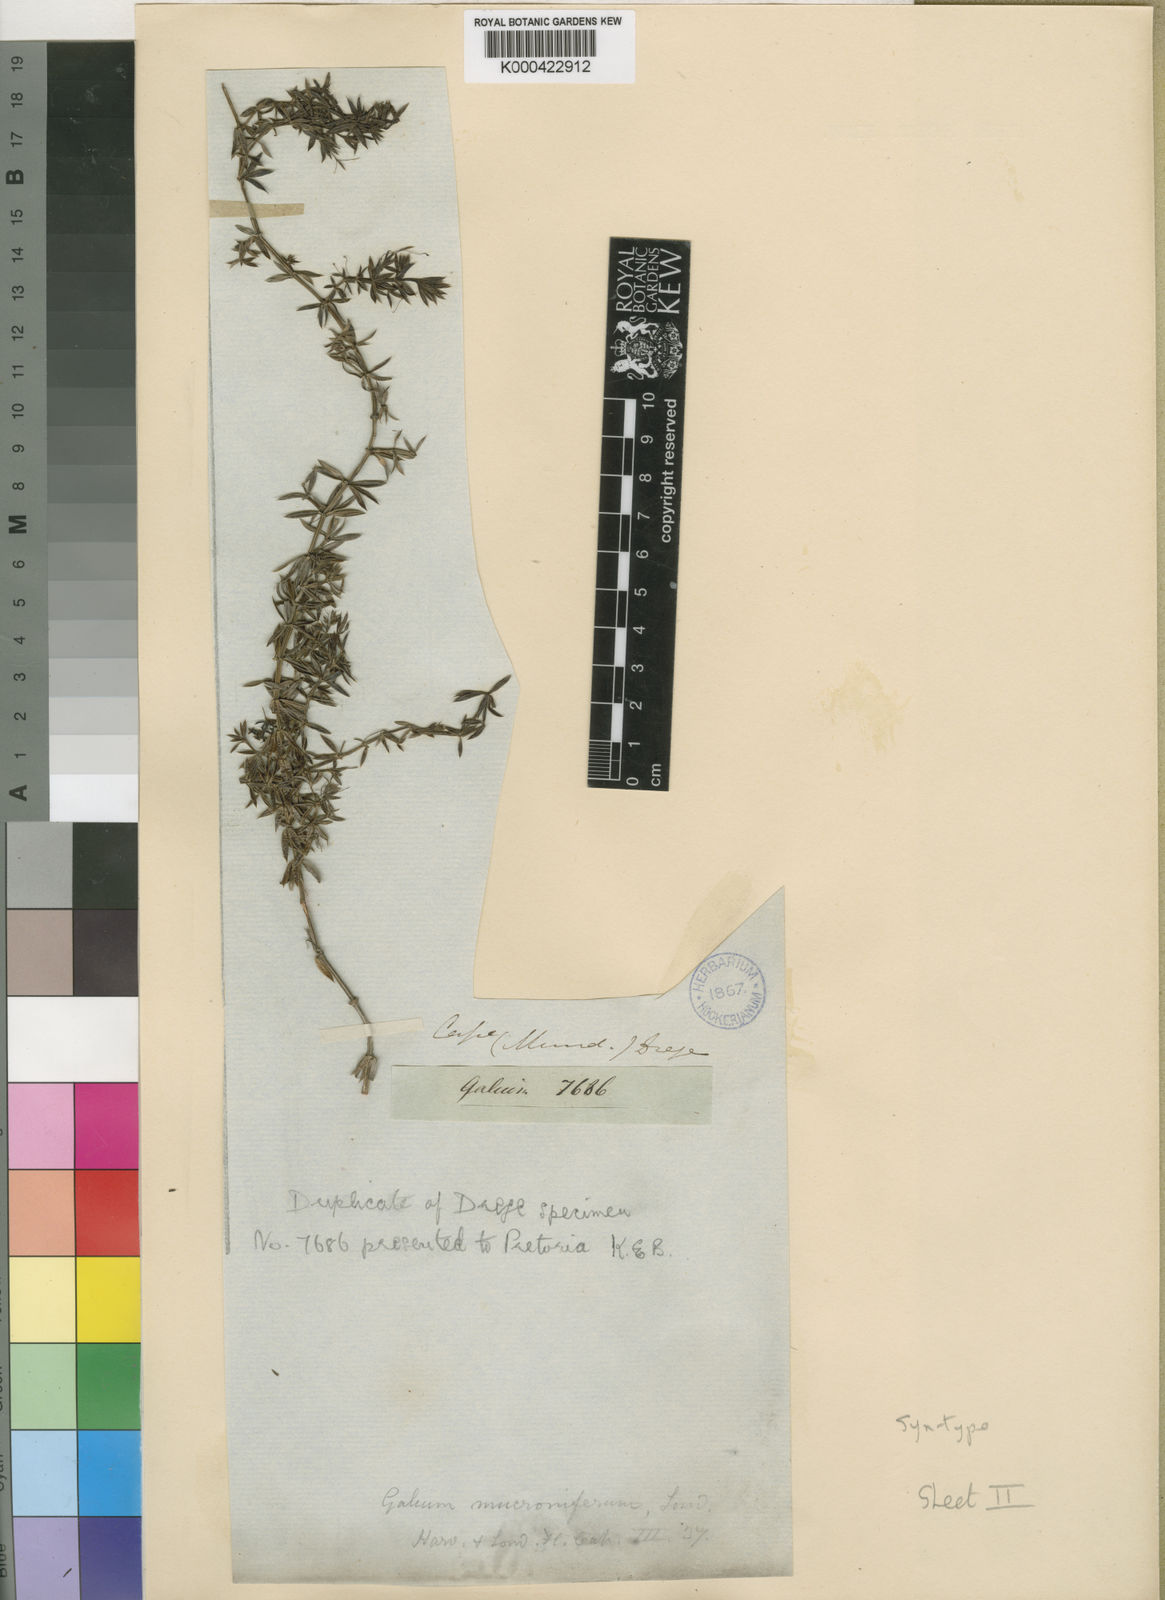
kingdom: Plantae
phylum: Tracheophyta
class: Magnoliopsida
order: Gentianales
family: Rubiaceae
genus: Galium
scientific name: Galium mucroniferum
